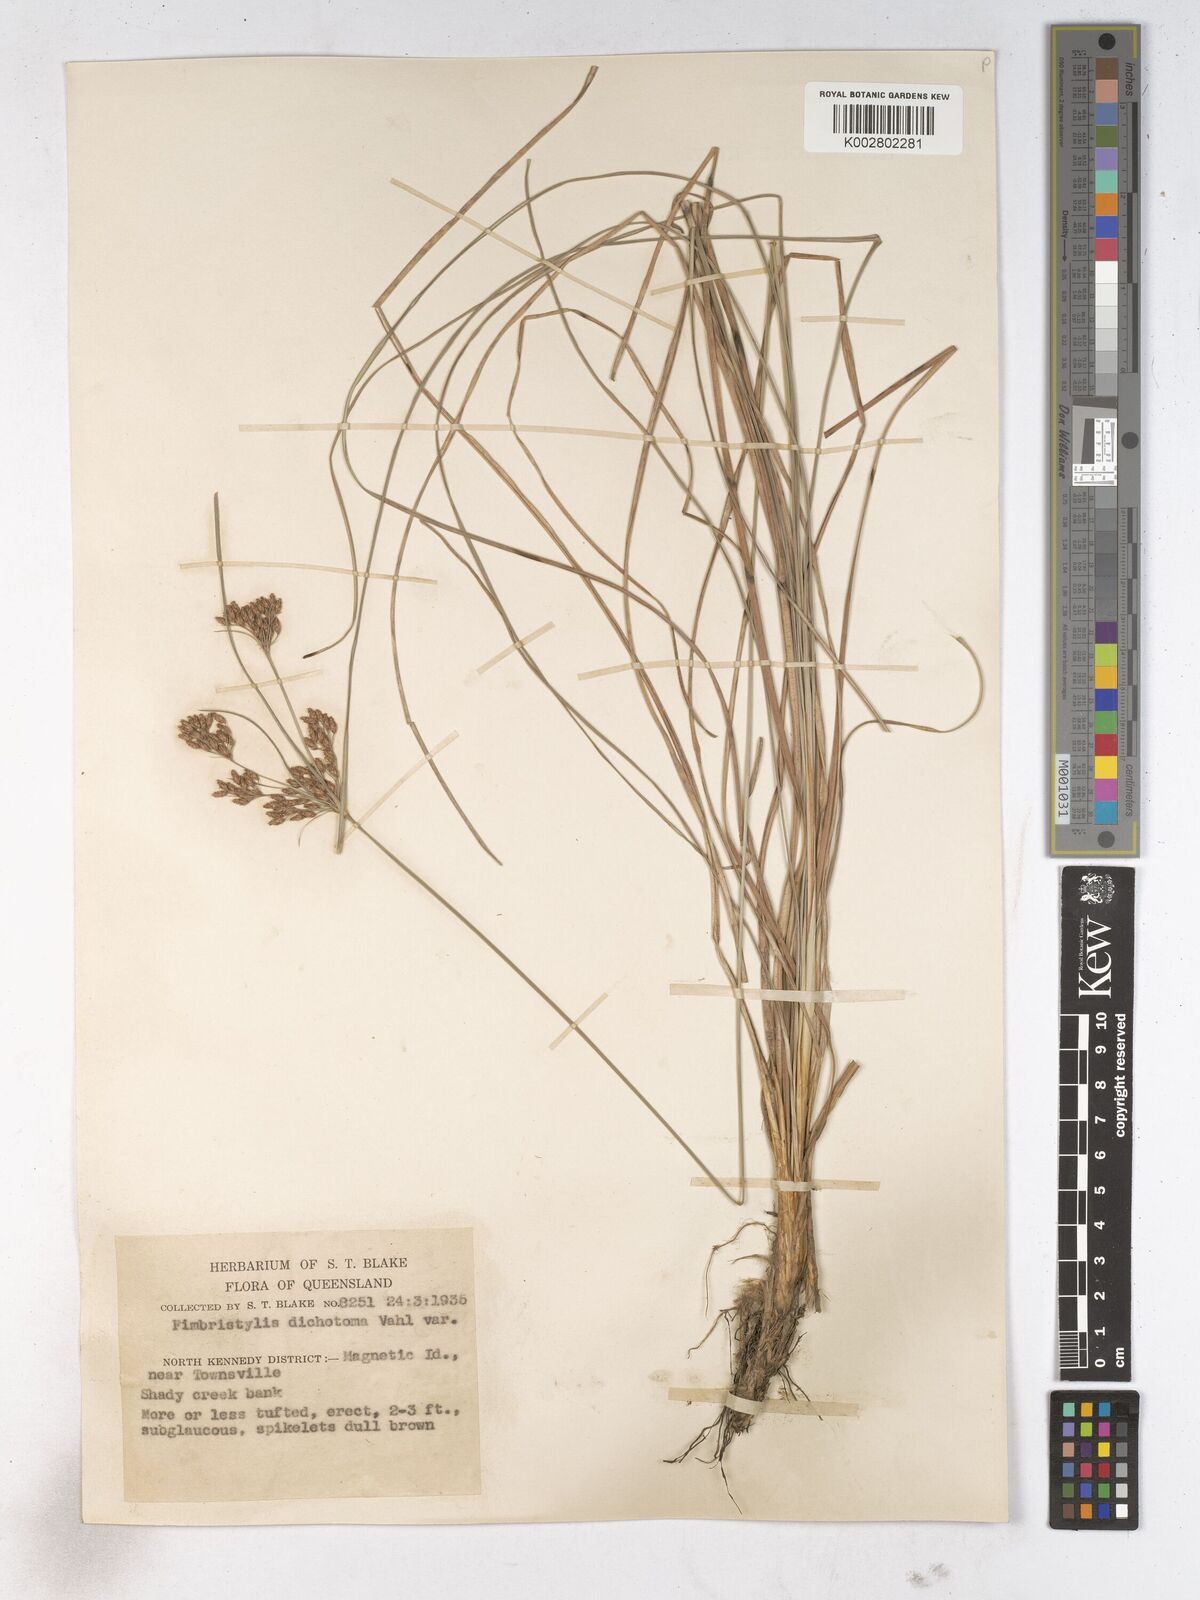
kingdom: Plantae
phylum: Tracheophyta
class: Liliopsida
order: Poales
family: Cyperaceae
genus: Fimbristylis
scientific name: Fimbristylis dichotoma
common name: Forked fimbry
